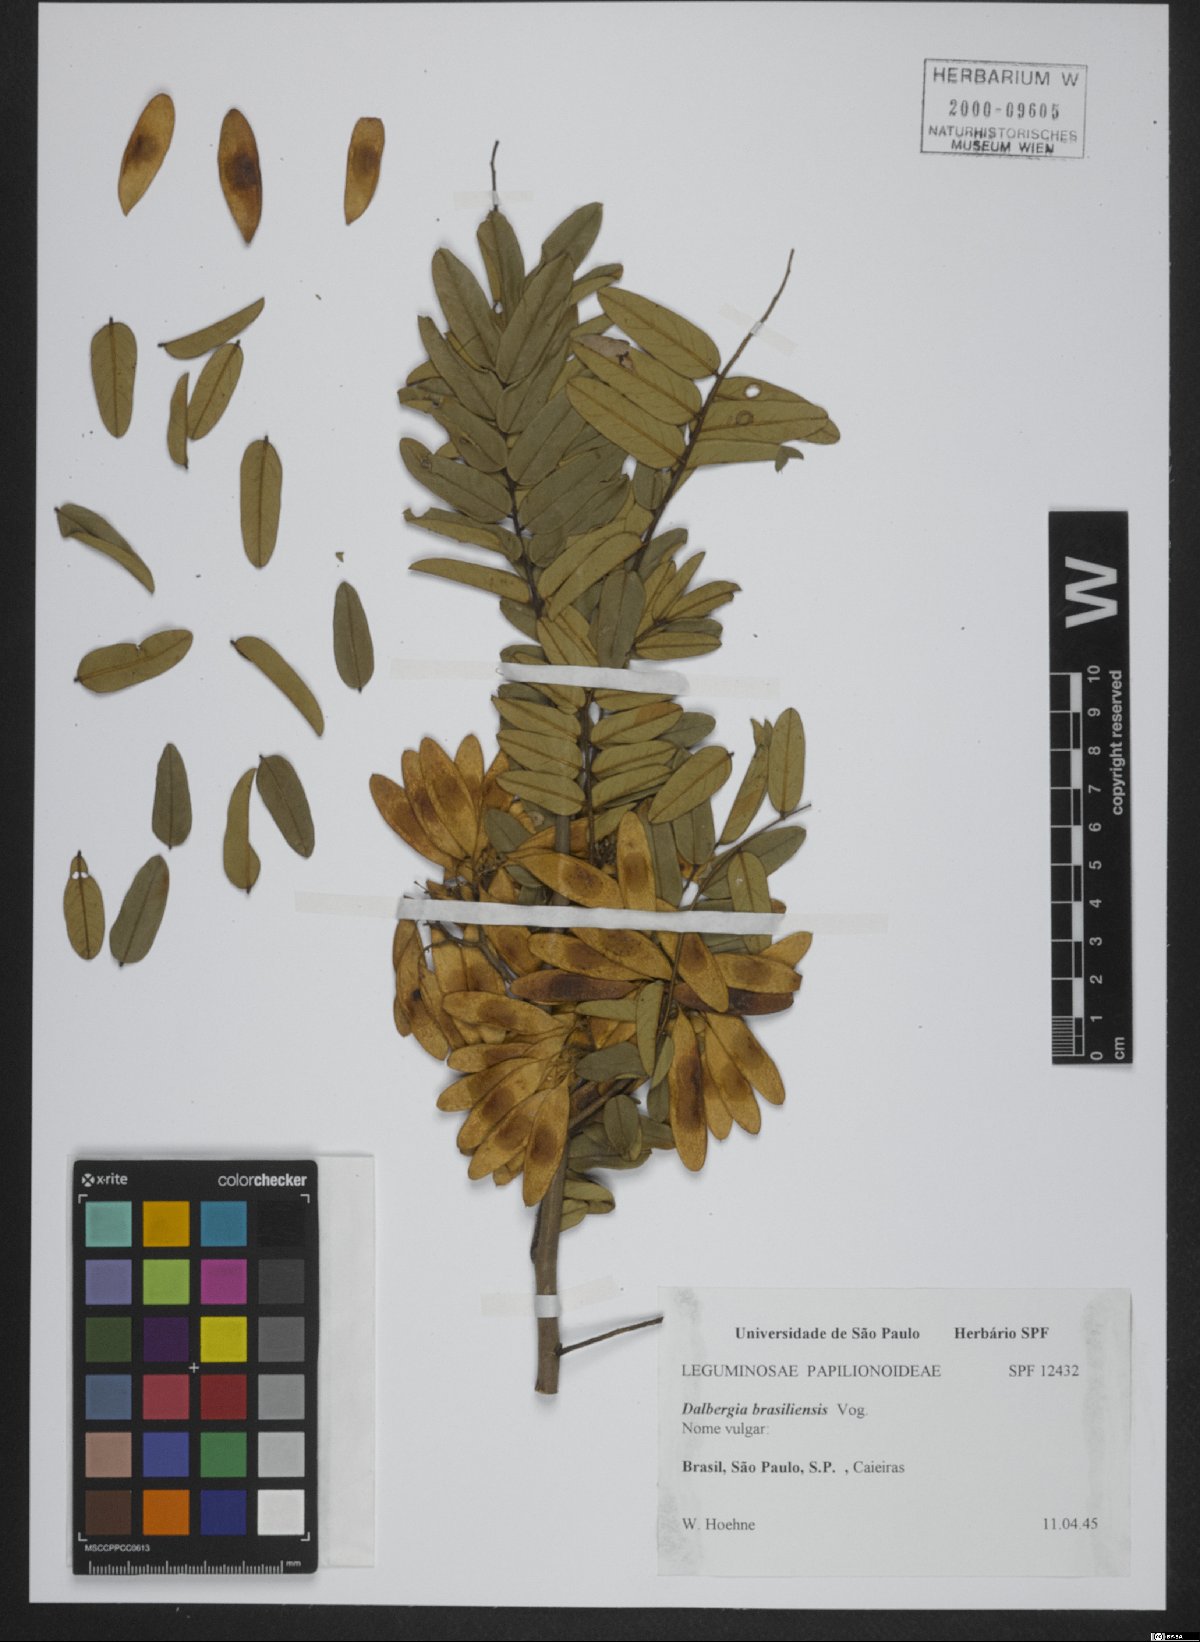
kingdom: Plantae
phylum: Tracheophyta
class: Magnoliopsida
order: Fabales
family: Fabaceae
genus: Dalbergia
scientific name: Dalbergia brasiliensis
